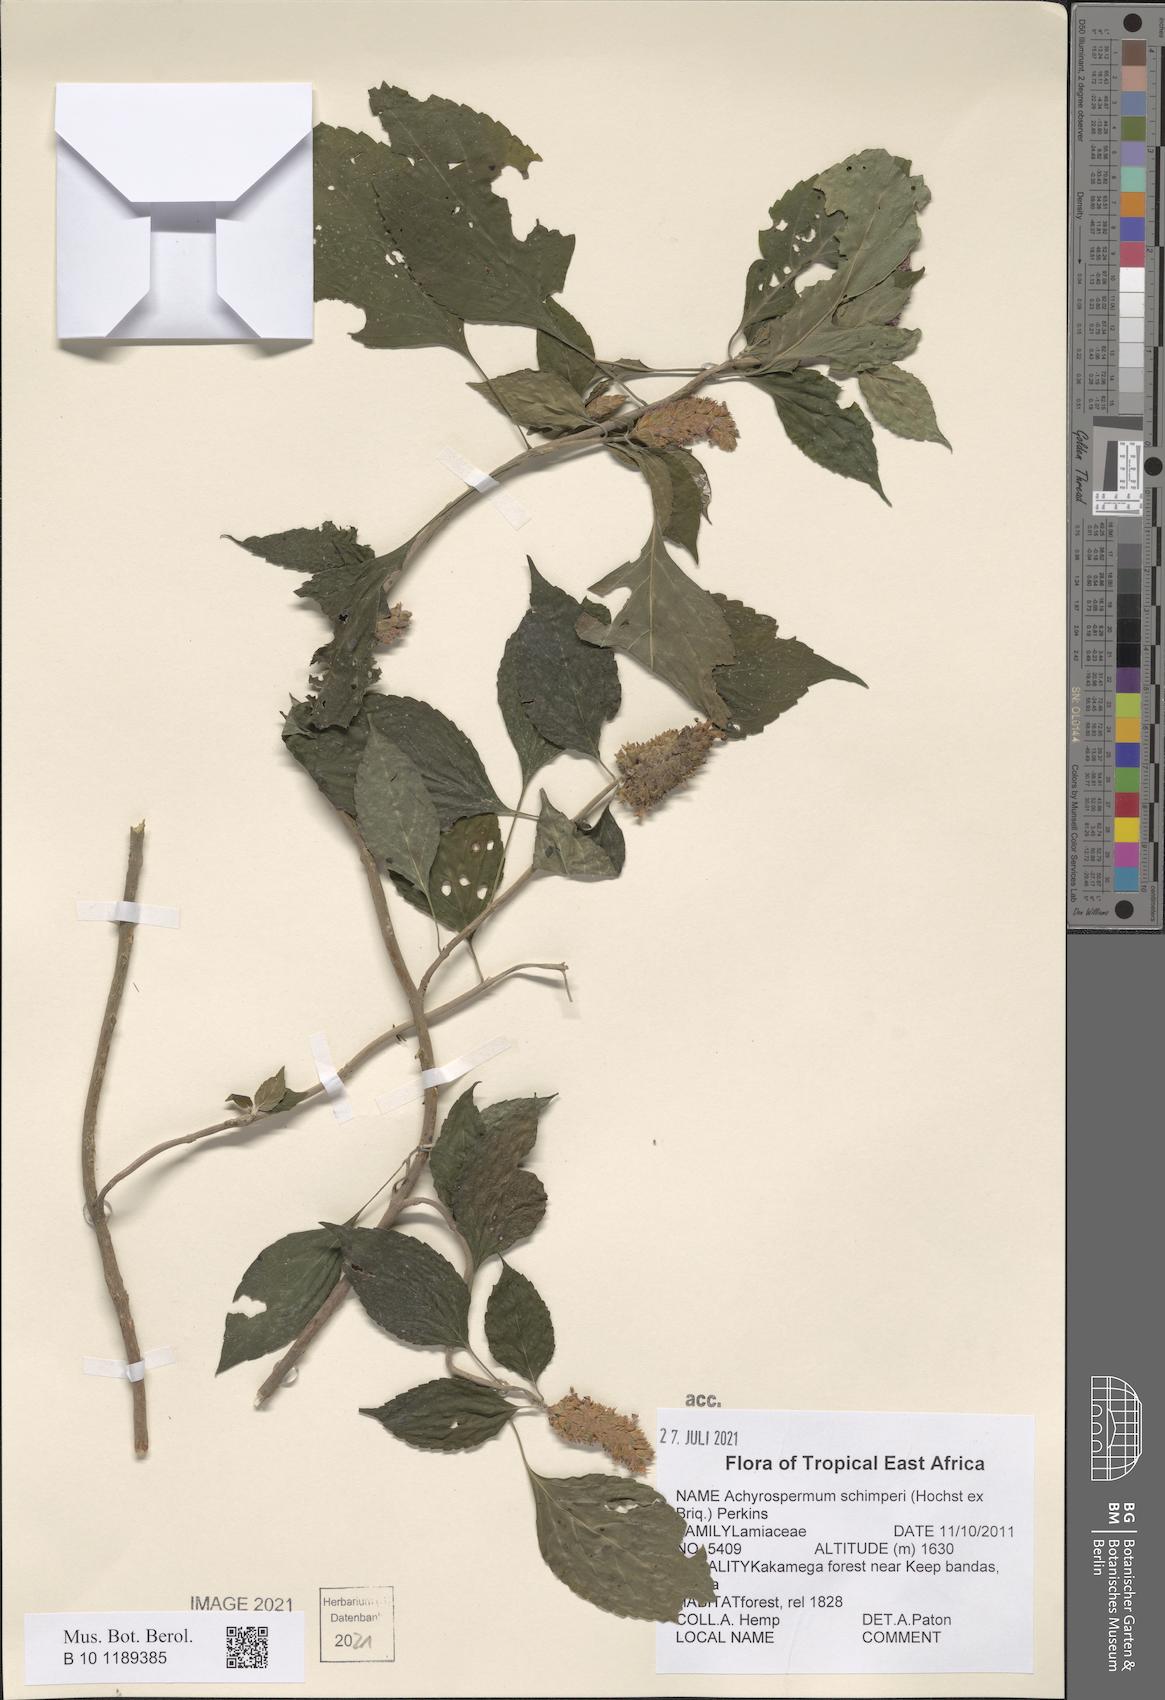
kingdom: Plantae
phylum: Tracheophyta
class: Magnoliopsida
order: Lamiales
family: Lamiaceae
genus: Achyrospermum
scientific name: Achyrospermum schimperi
